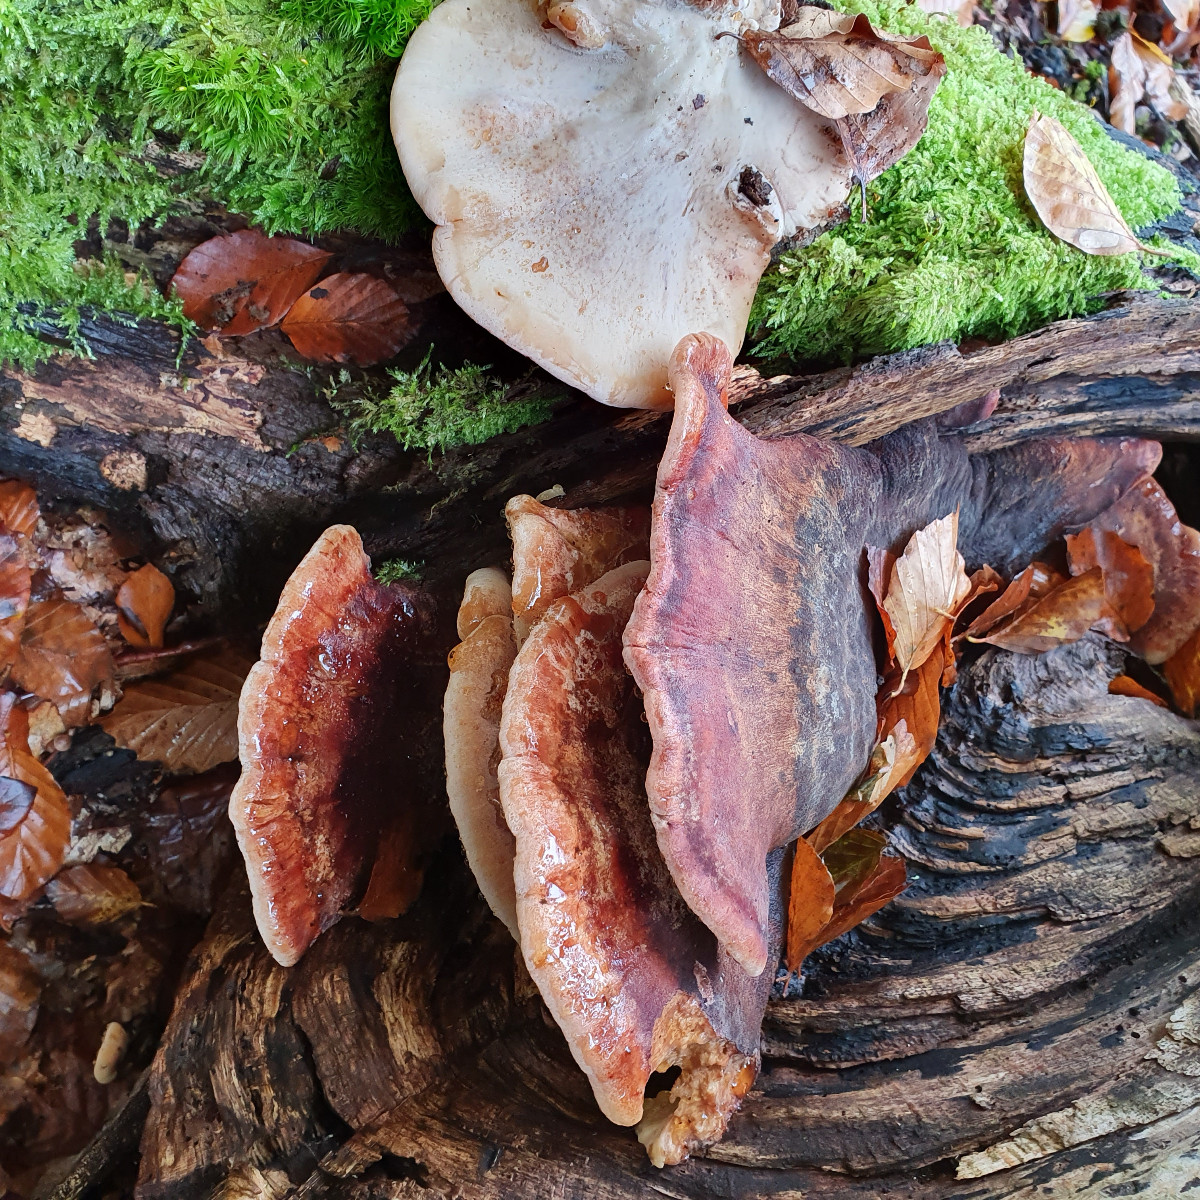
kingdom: Fungi
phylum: Basidiomycota
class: Agaricomycetes
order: Polyporales
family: Ischnodermataceae
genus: Ischnoderma
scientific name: Ischnoderma resinosum
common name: løv-tjæreporesvamp
